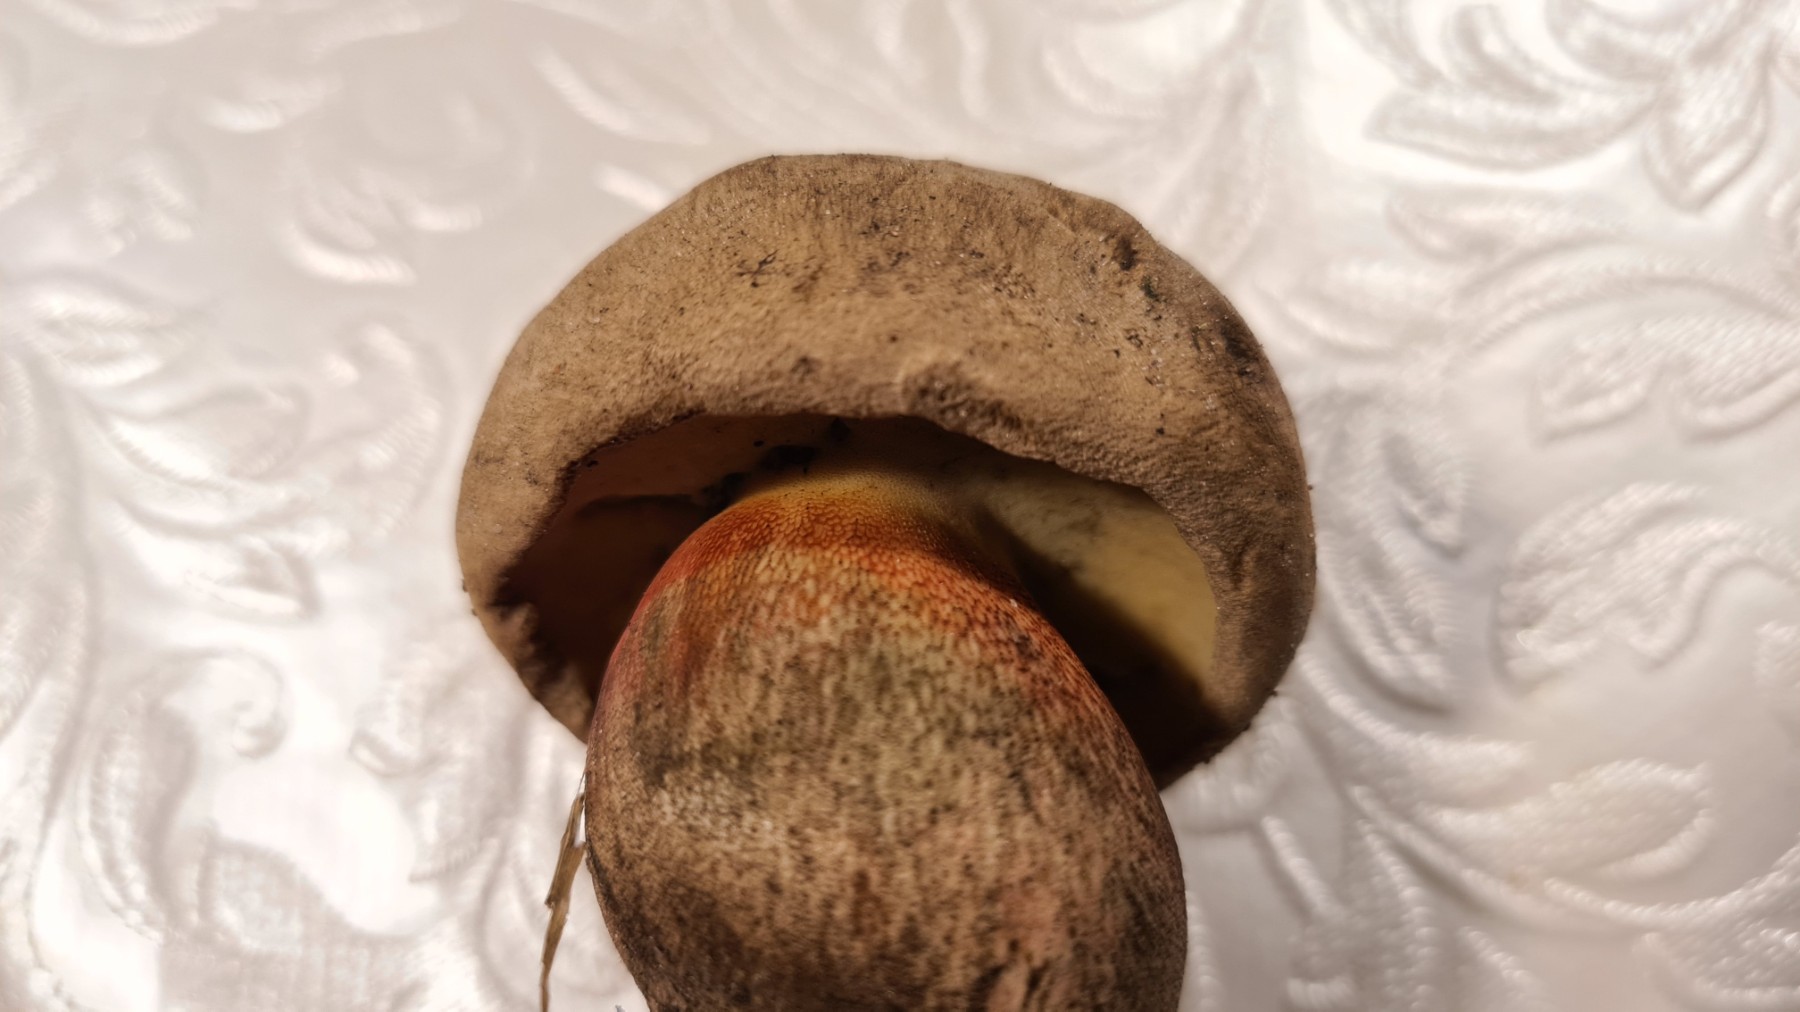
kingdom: Fungi
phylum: Basidiomycota
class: Agaricomycetes
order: Boletales
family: Boletaceae
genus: Caloboletus
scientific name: Caloboletus calopus
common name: skønfodet rørhat
